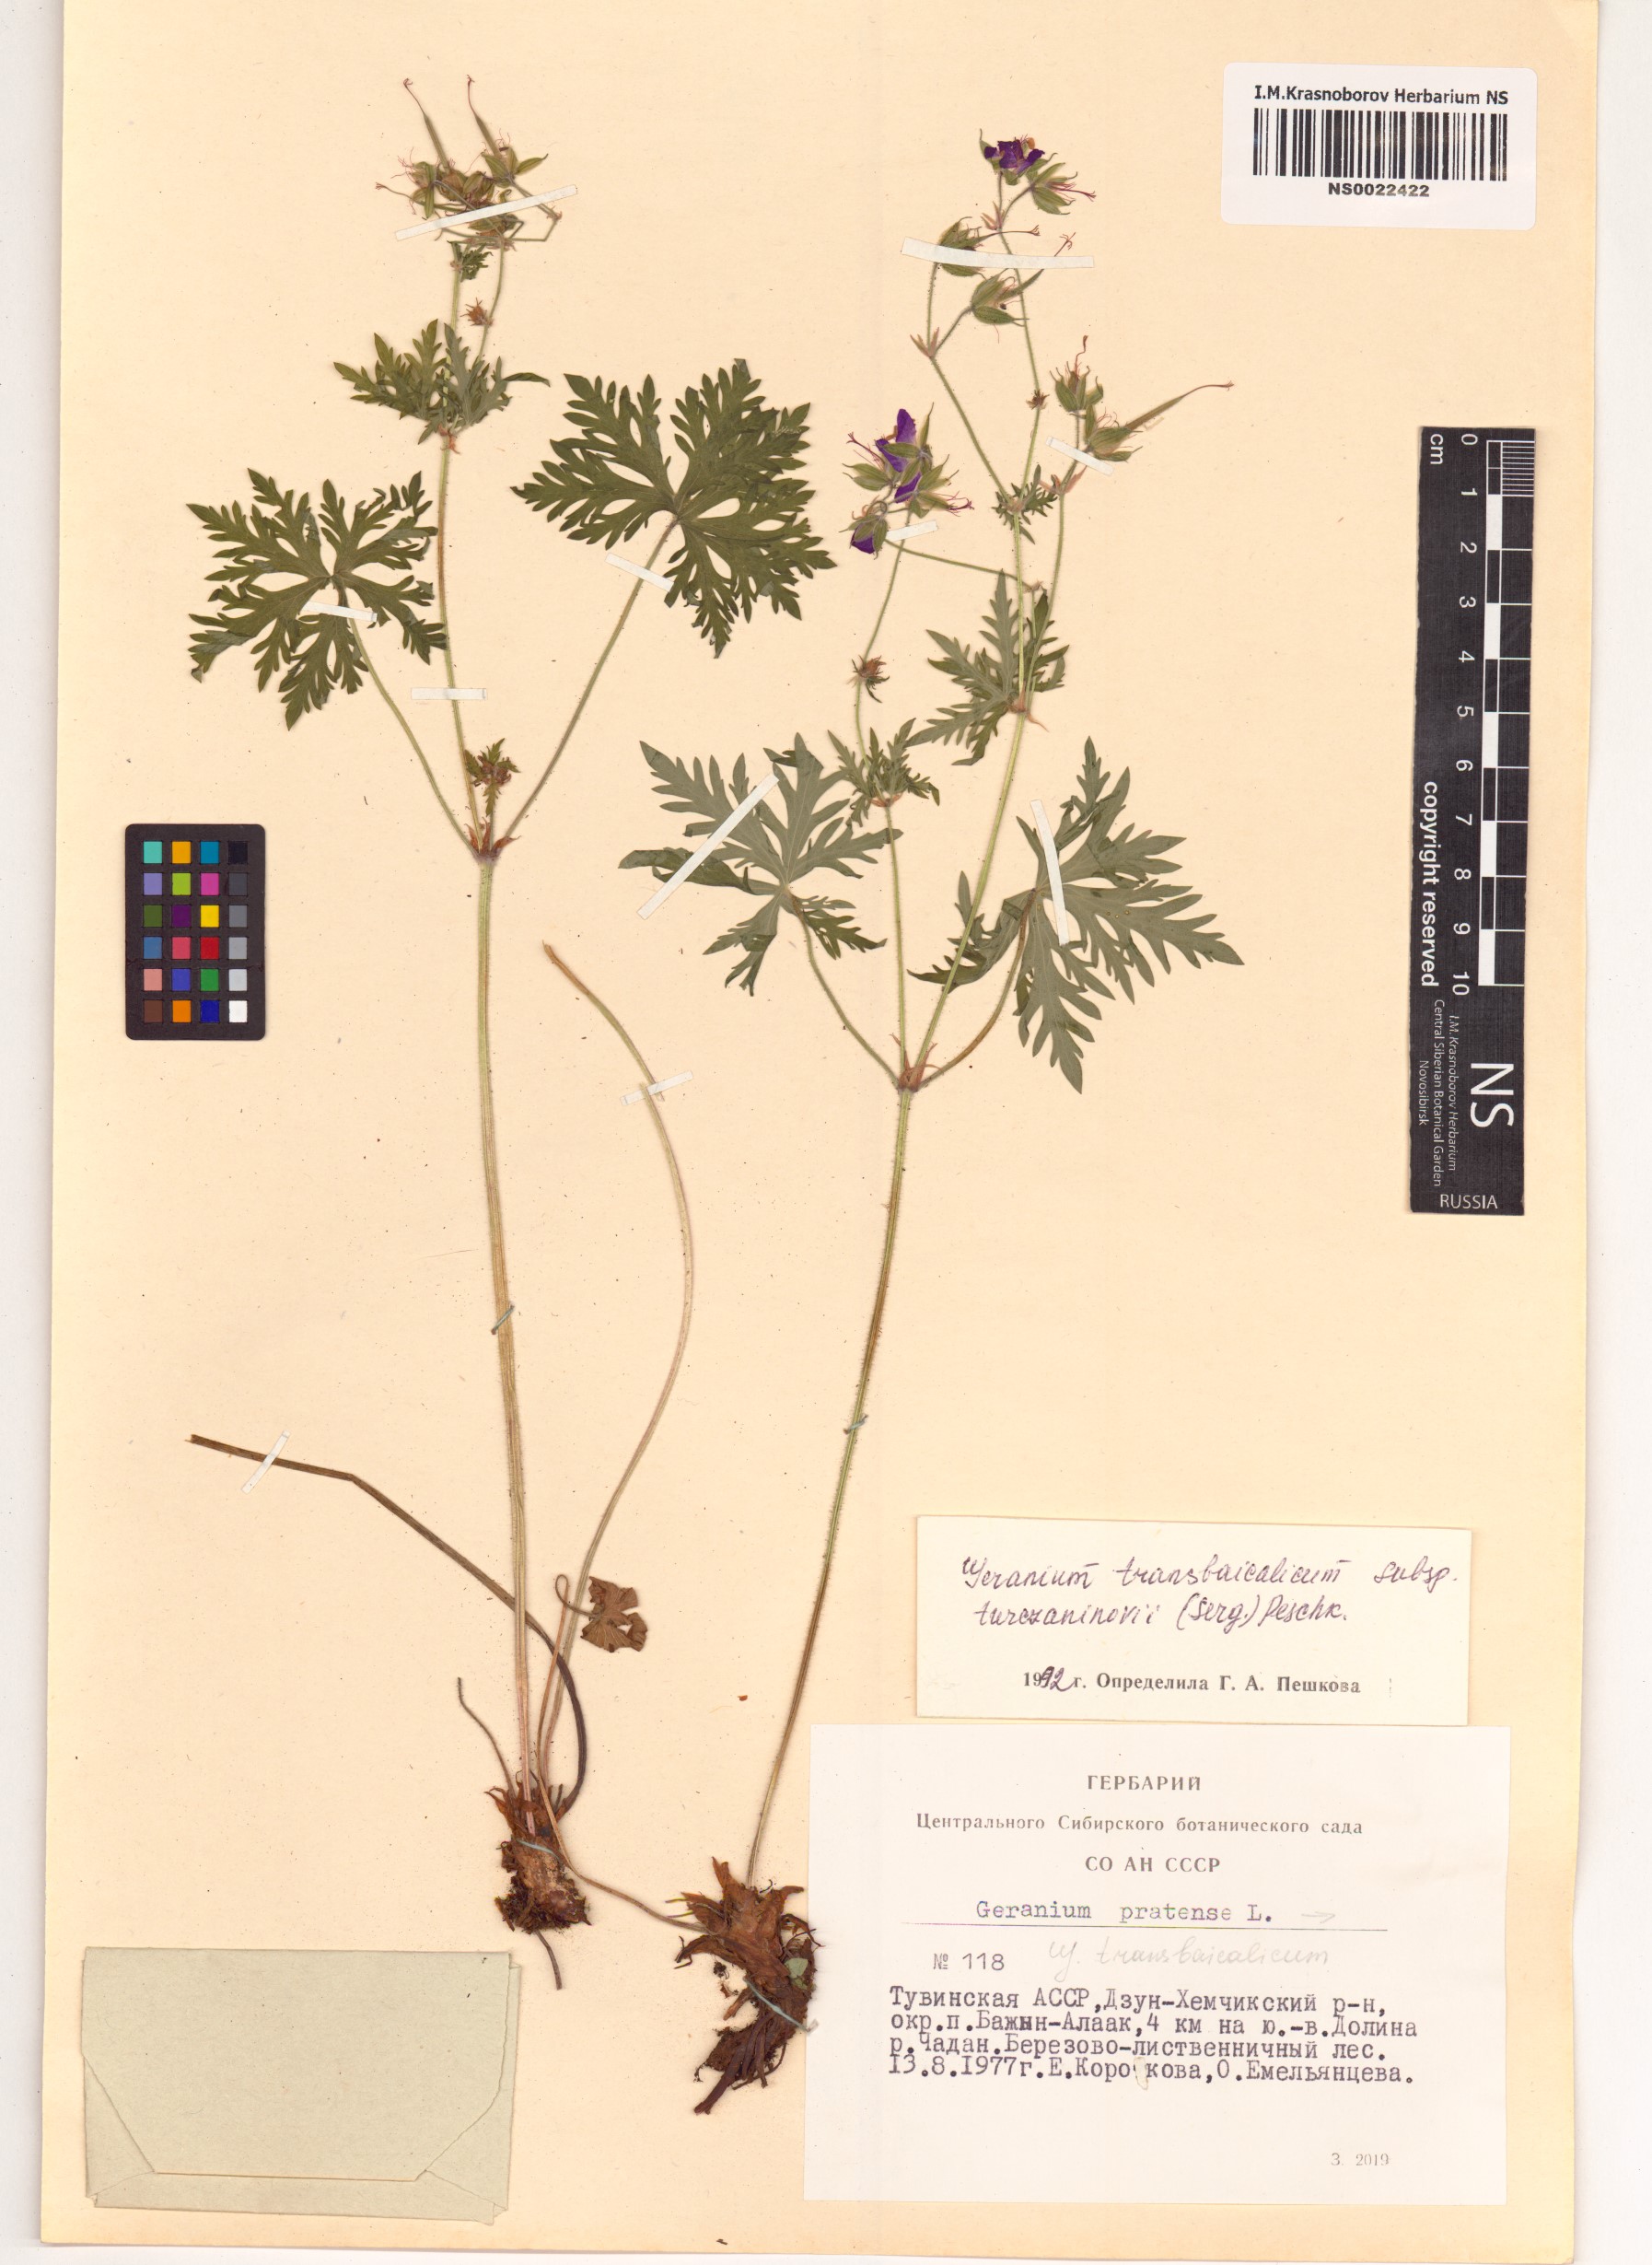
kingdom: Plantae
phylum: Tracheophyta
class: Magnoliopsida
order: Geraniales
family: Geraniaceae
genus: Geranium
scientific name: Geranium pratense
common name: Meadow crane's-bill
